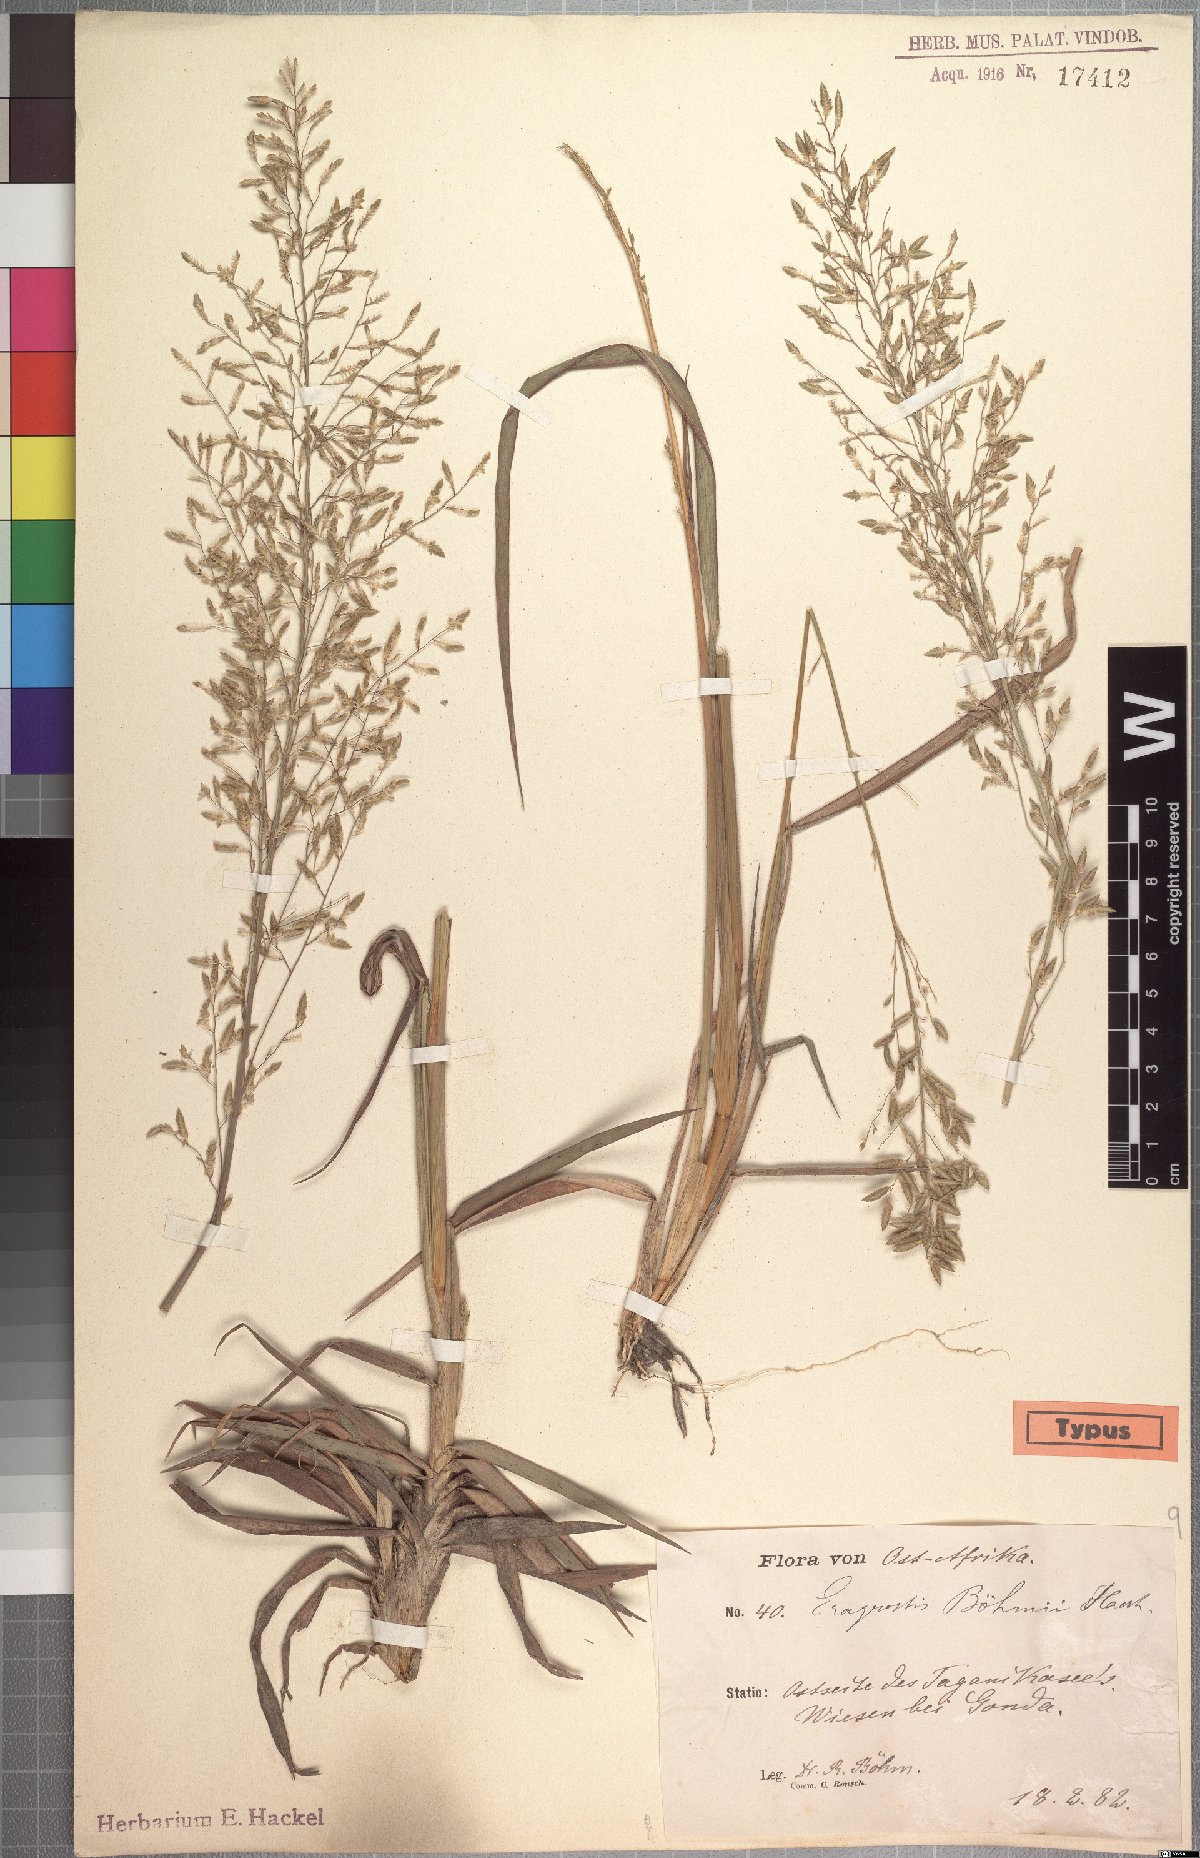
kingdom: Plantae
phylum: Tracheophyta
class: Liliopsida
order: Poales
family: Poaceae
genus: Eragrostis
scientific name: Eragrostis racemosa
